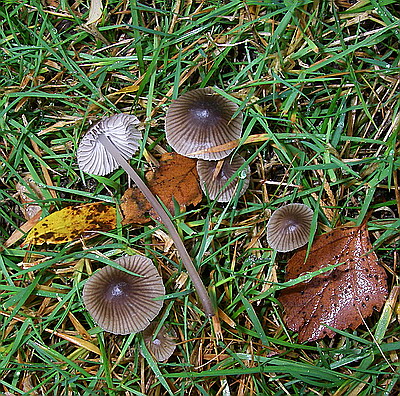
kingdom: Fungi
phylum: Basidiomycota
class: Agaricomycetes
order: Agaricales
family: Mycenaceae
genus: Mycena
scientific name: Mycena aetites
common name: plæne-huesvamp
